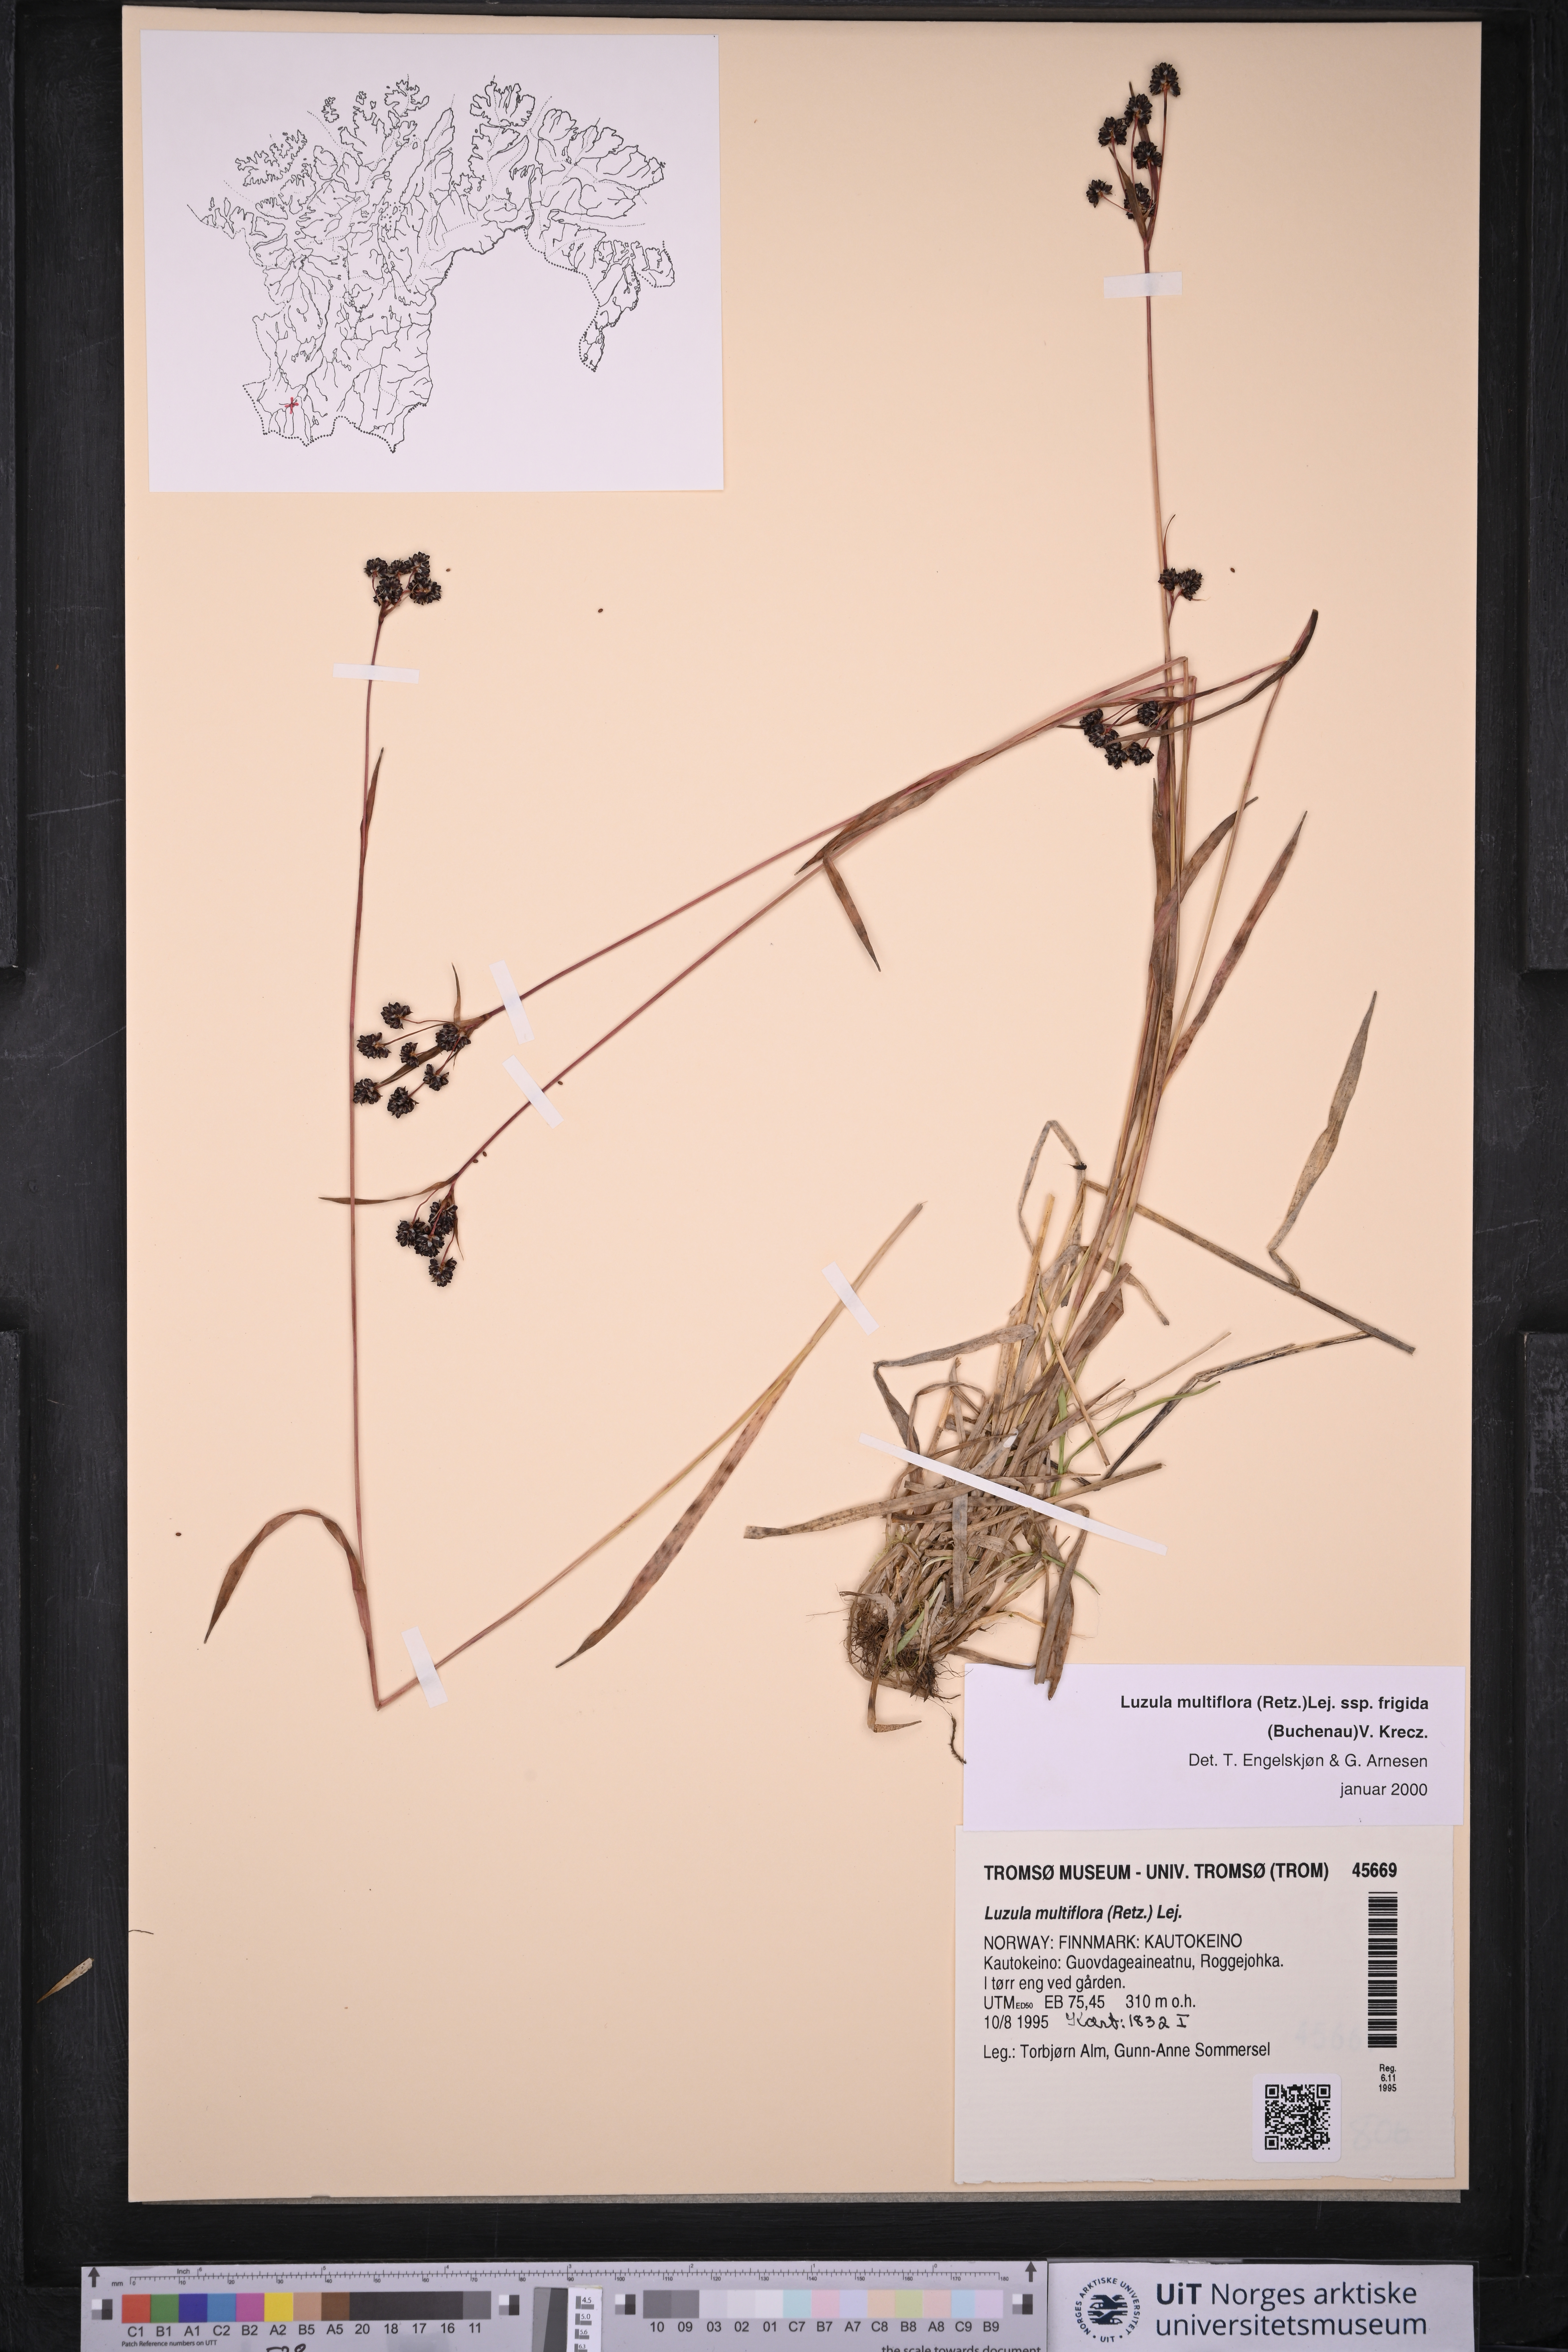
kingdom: Plantae
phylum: Tracheophyta
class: Liliopsida
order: Poales
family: Juncaceae
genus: Luzula
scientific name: Luzula multiflora
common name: Heath wood-rush
